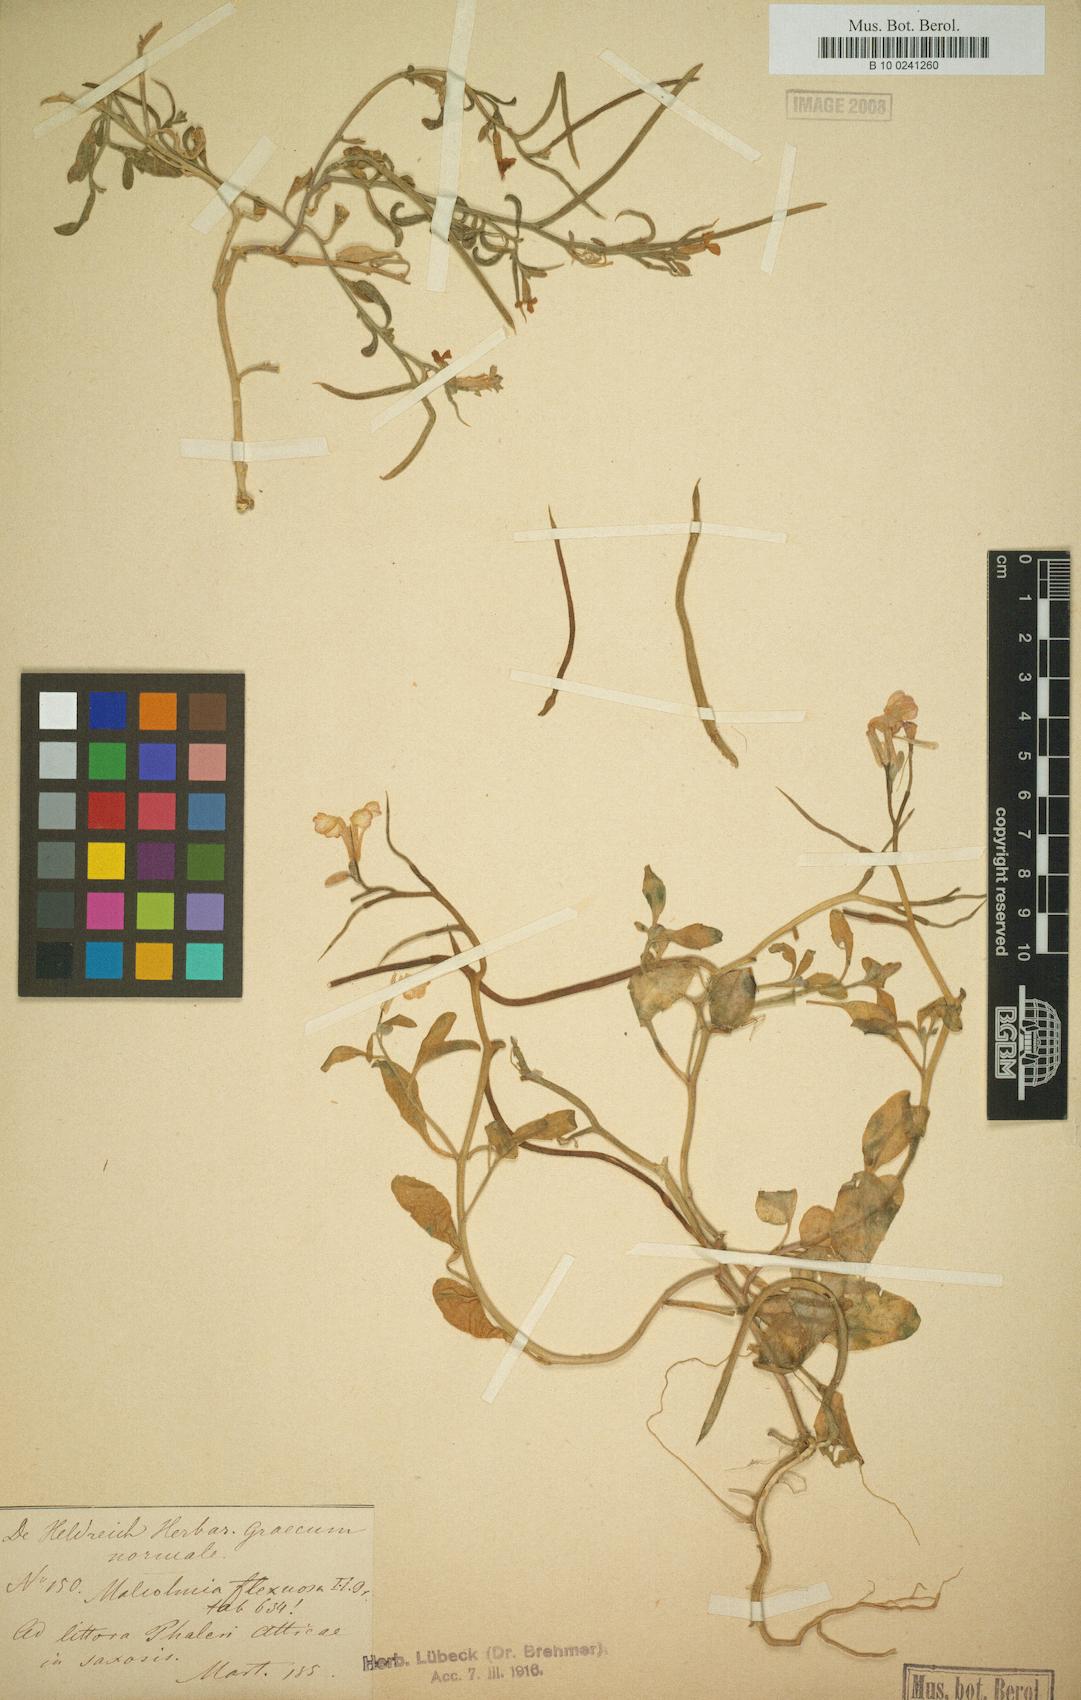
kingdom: Plantae
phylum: Tracheophyta
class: Magnoliopsida
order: Brassicales
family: Brassicaceae
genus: Malcolmia
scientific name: Malcolmia flexuosa
